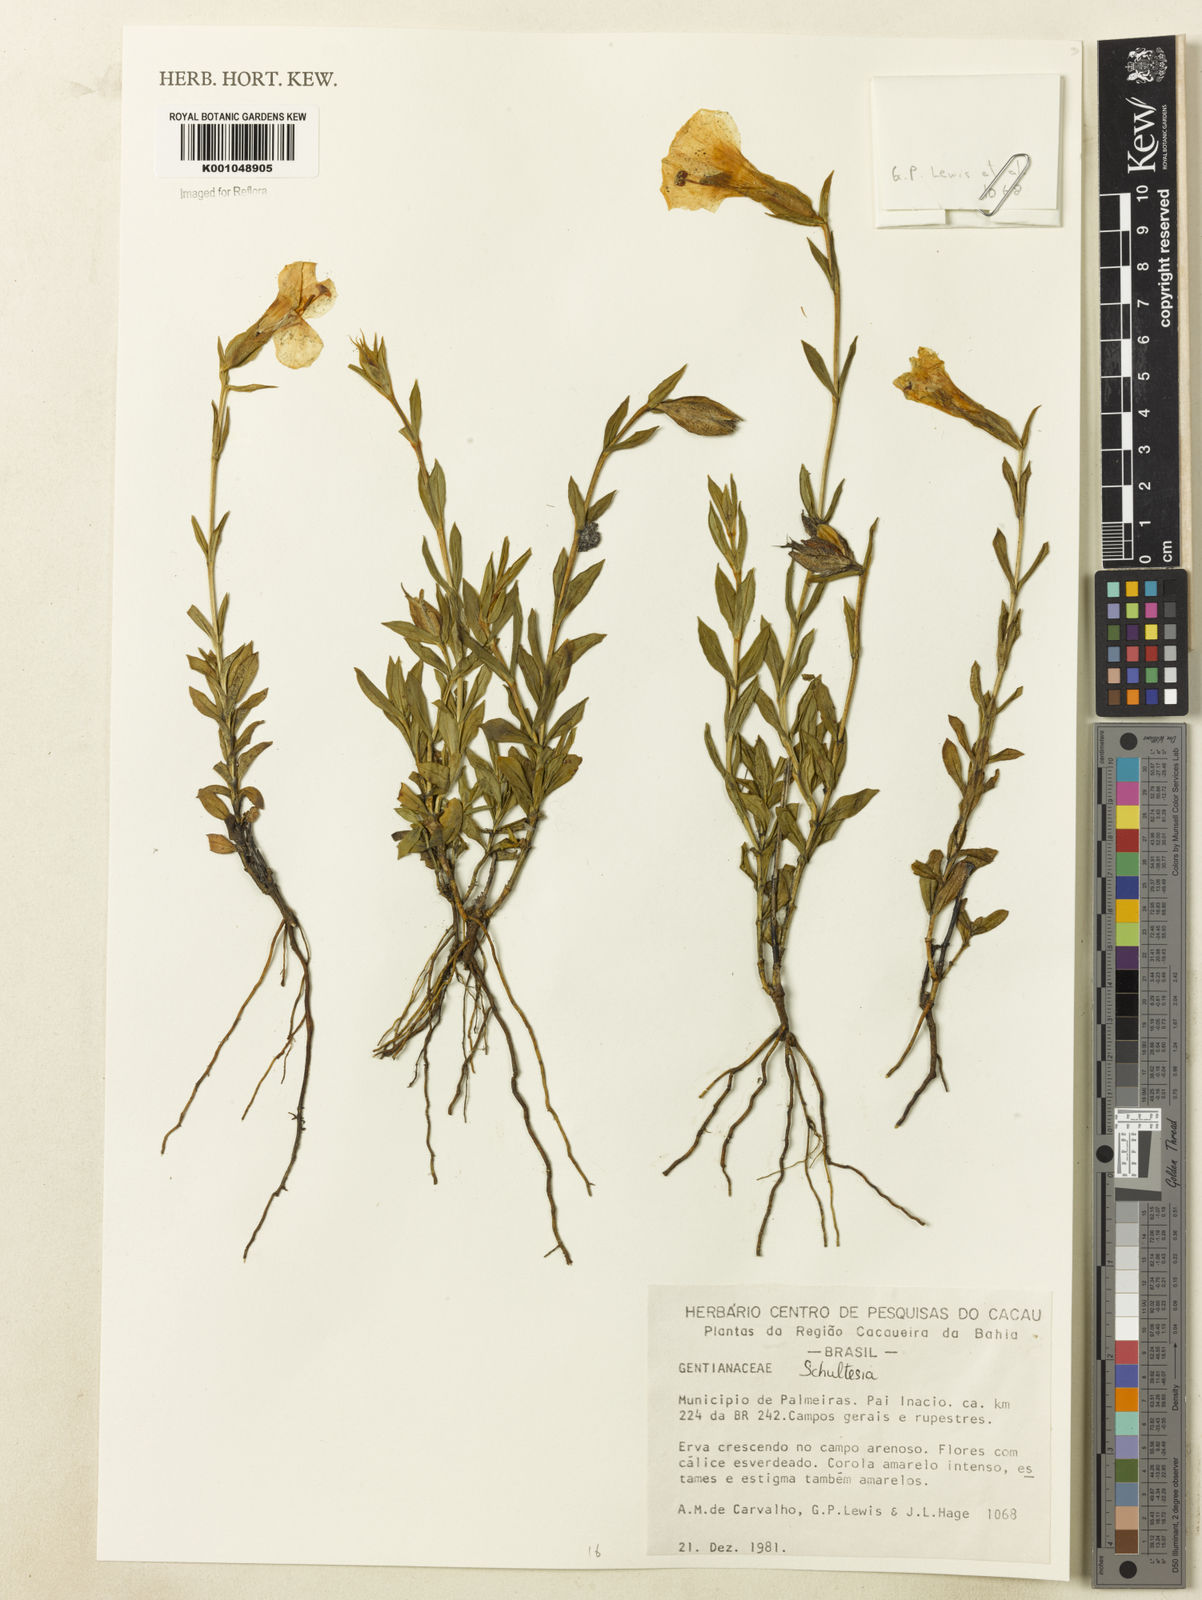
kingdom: Plantae
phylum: Tracheophyta
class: Magnoliopsida
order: Gentianales
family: Gentianaceae
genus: Schultesia
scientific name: Schultesia
